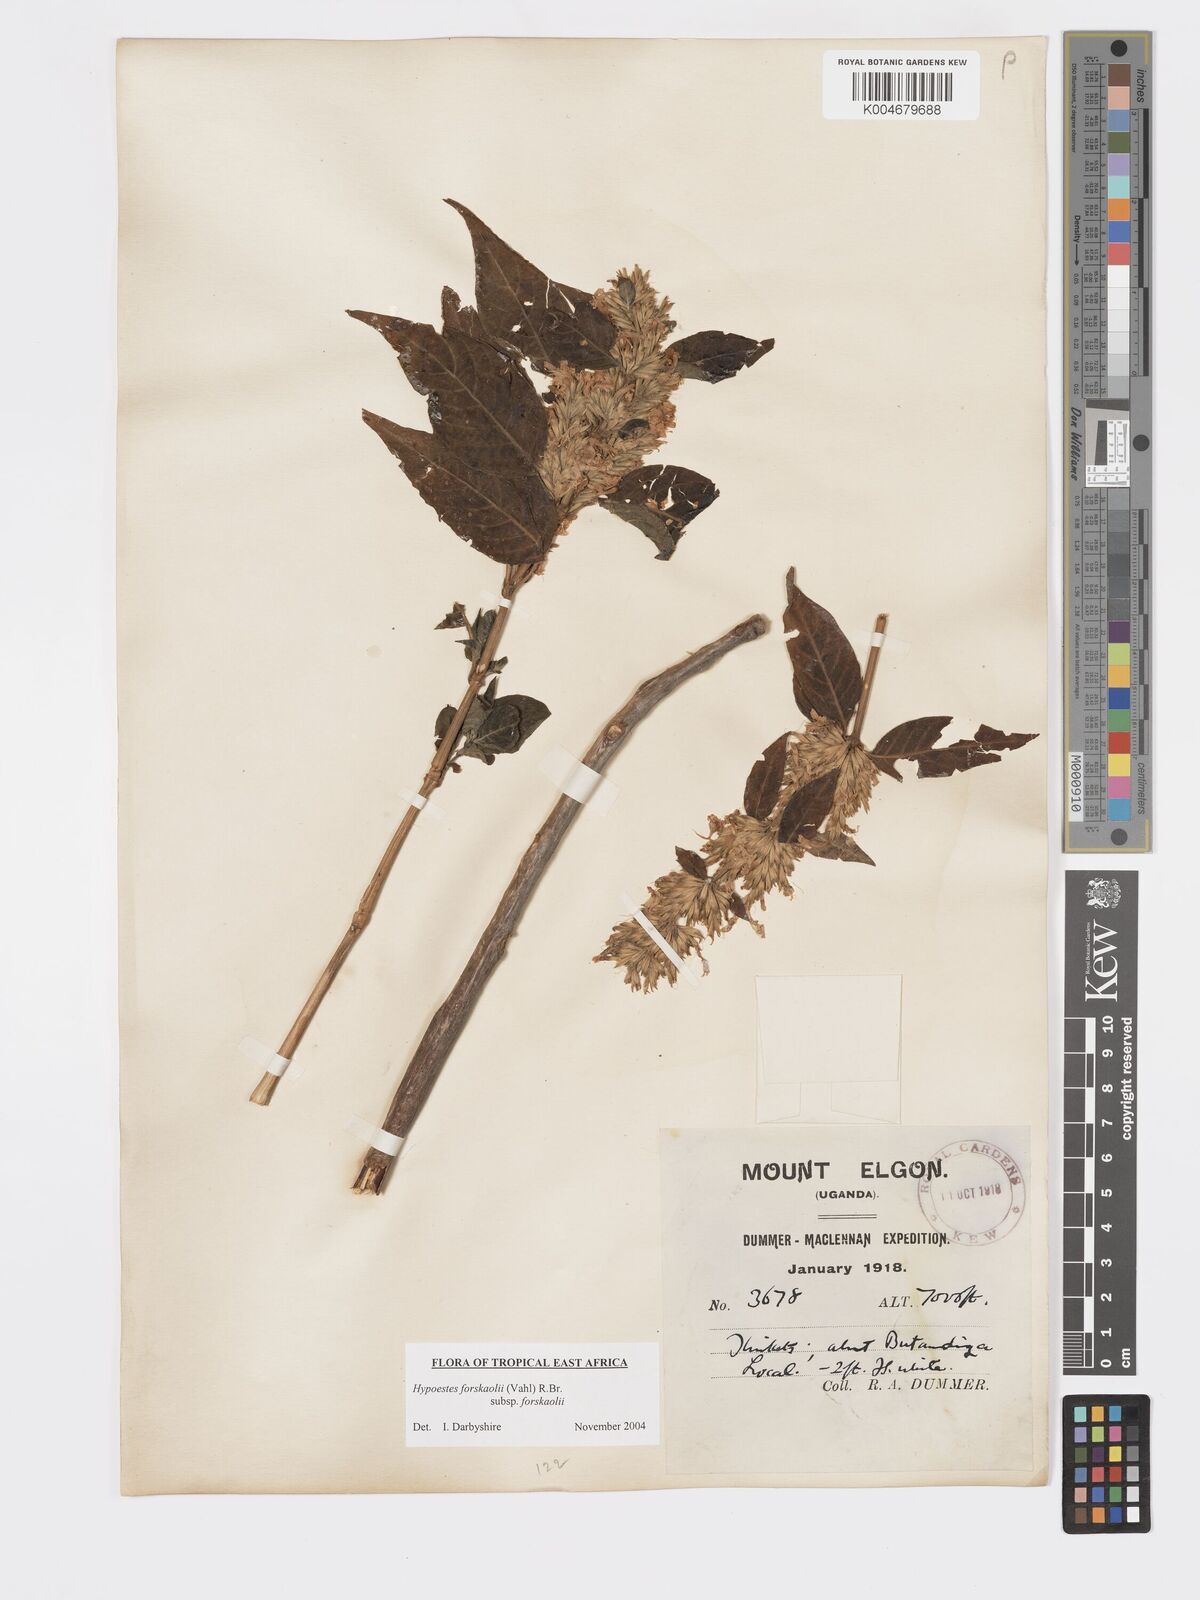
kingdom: Plantae
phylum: Tracheophyta
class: Magnoliopsida
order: Lamiales
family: Acanthaceae
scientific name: Acanthaceae
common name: Acanthaceae
